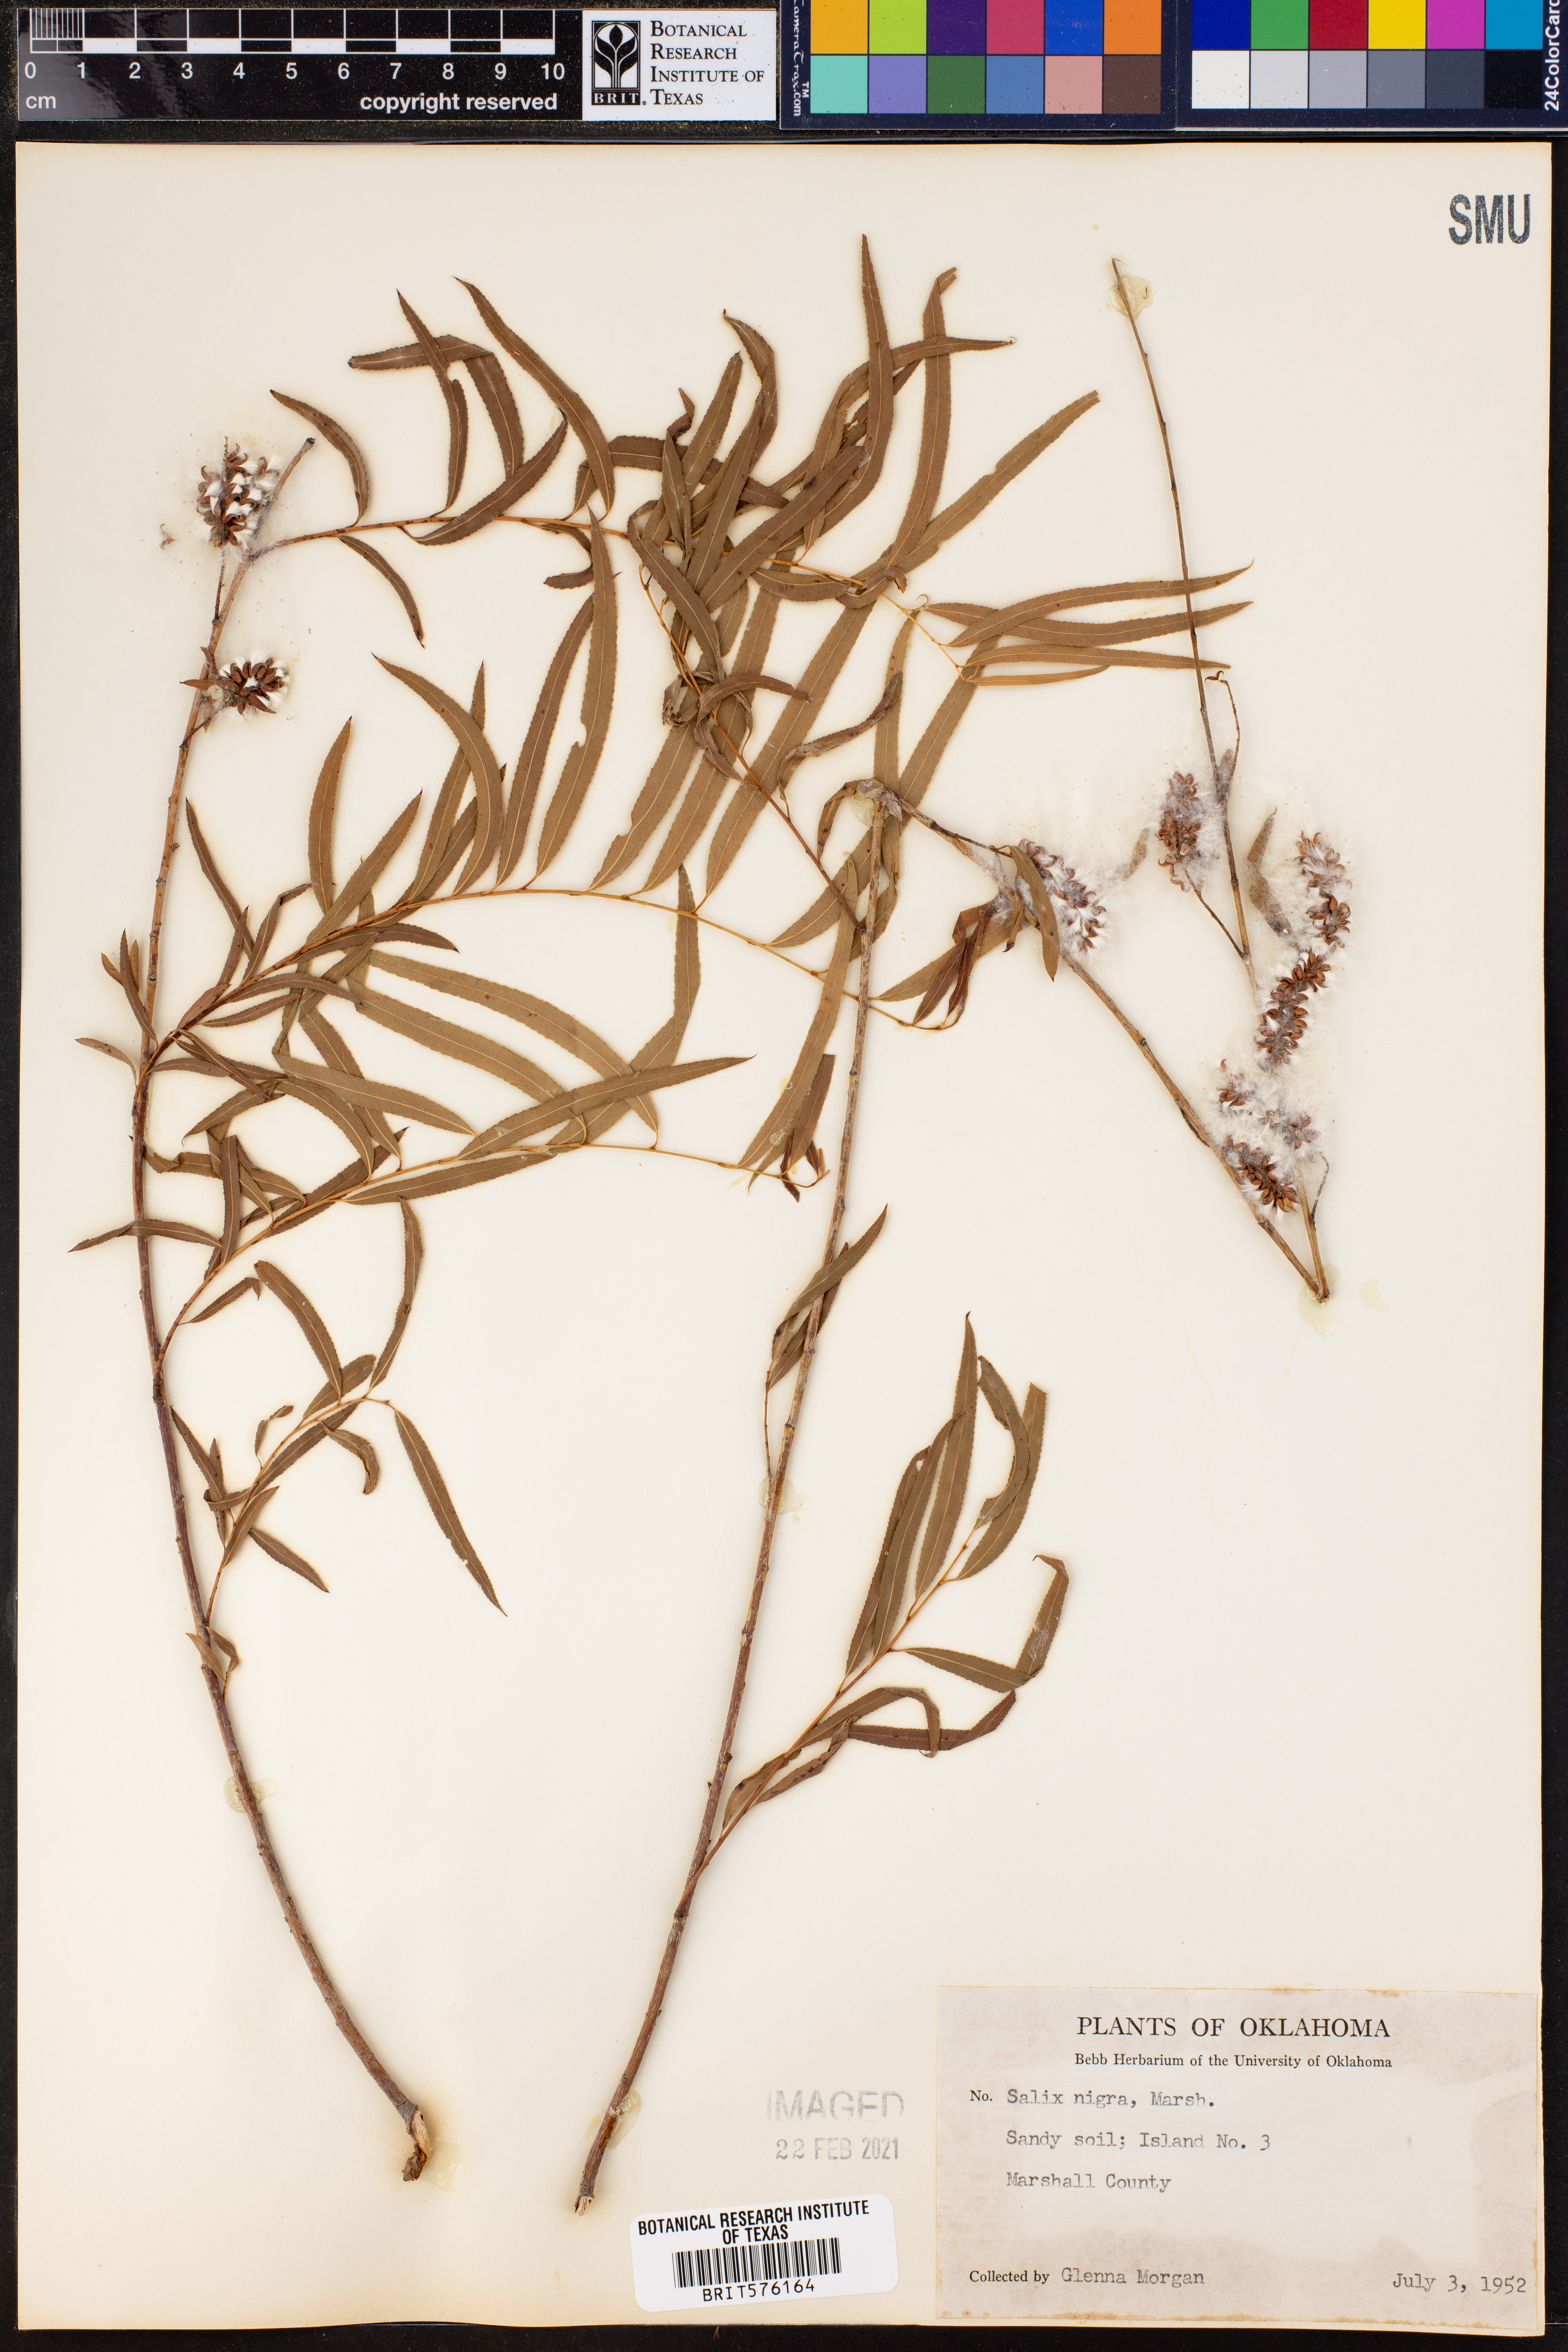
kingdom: Plantae
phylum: Tracheophyta
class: Magnoliopsida
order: Malpighiales
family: Salicaceae
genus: Salix
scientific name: Salix nigra
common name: Black willow
